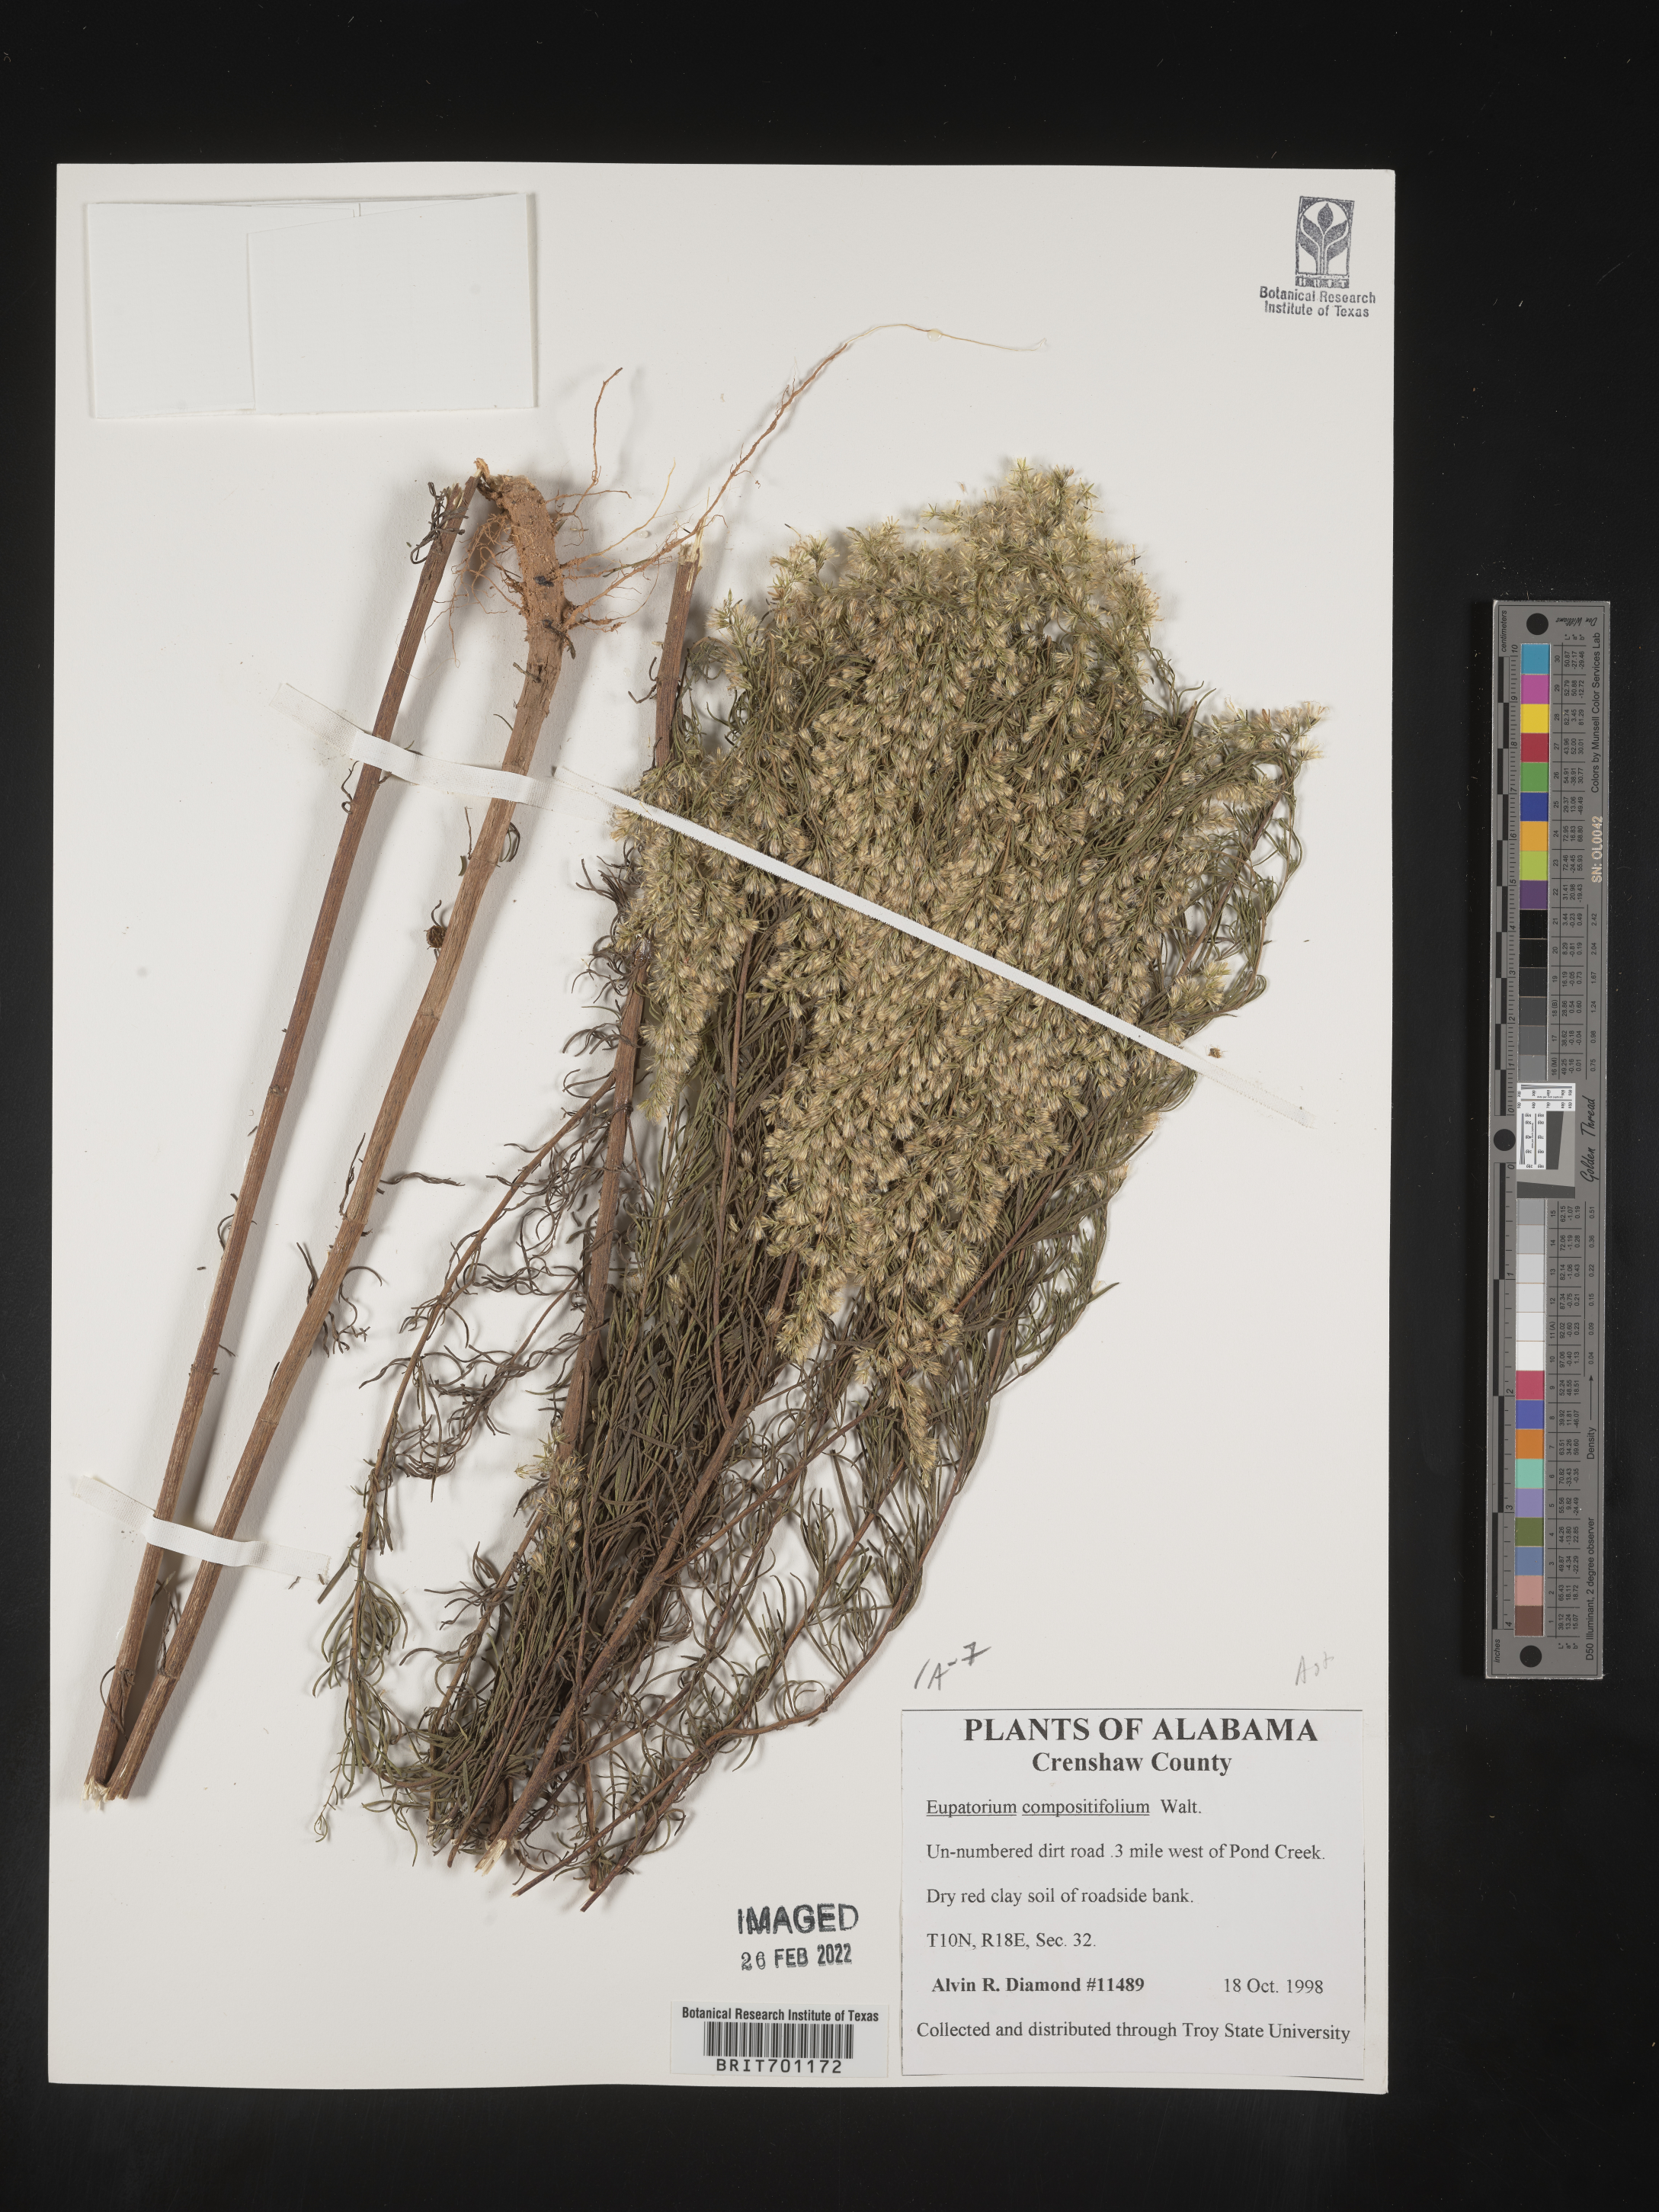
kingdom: Plantae
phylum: Tracheophyta
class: Magnoliopsida
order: Asterales
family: Asteraceae
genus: Eupatorium
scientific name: Eupatorium compositifolium
